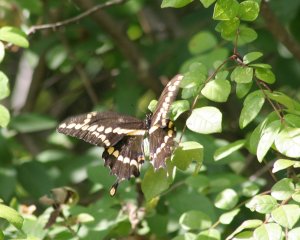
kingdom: Animalia
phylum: Arthropoda
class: Insecta
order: Lepidoptera
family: Papilionidae
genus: Papilio
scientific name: Papilio cresphontes
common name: Eastern Giant Swallowtail
